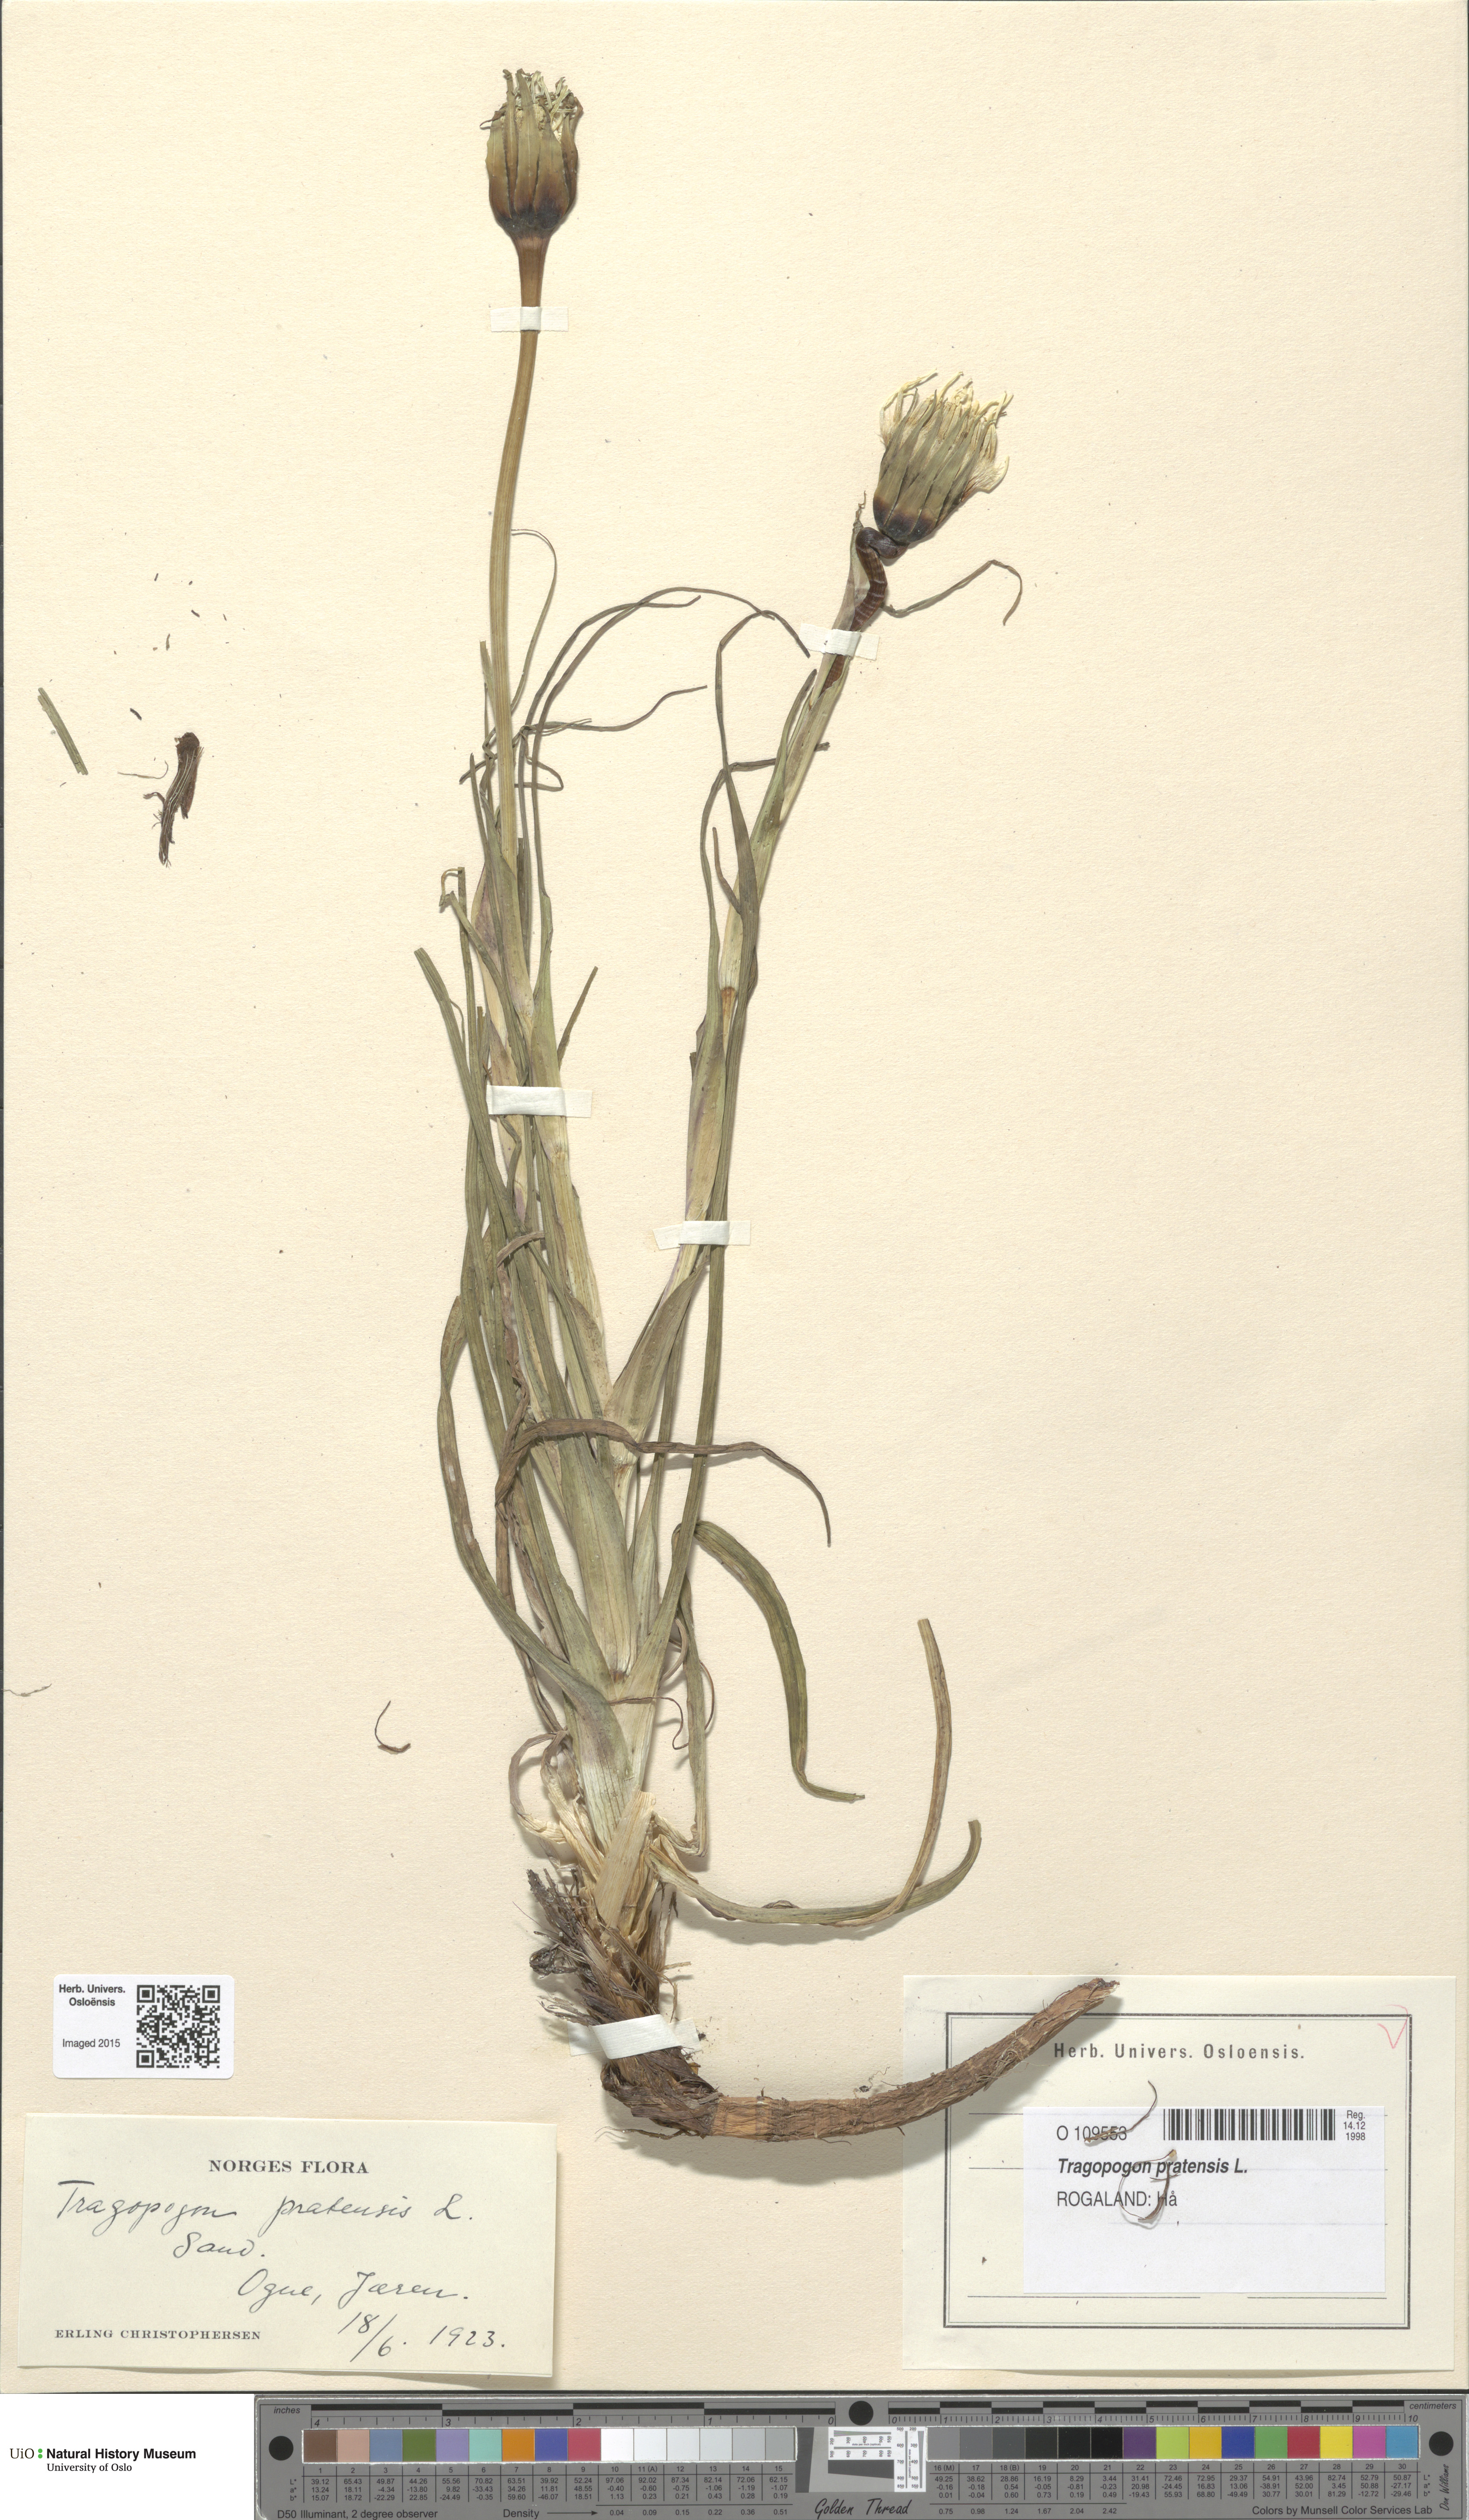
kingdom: Plantae
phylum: Tracheophyta
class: Magnoliopsida
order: Asterales
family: Asteraceae
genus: Tragopogon
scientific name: Tragopogon pratensis
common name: Goat's-beard
